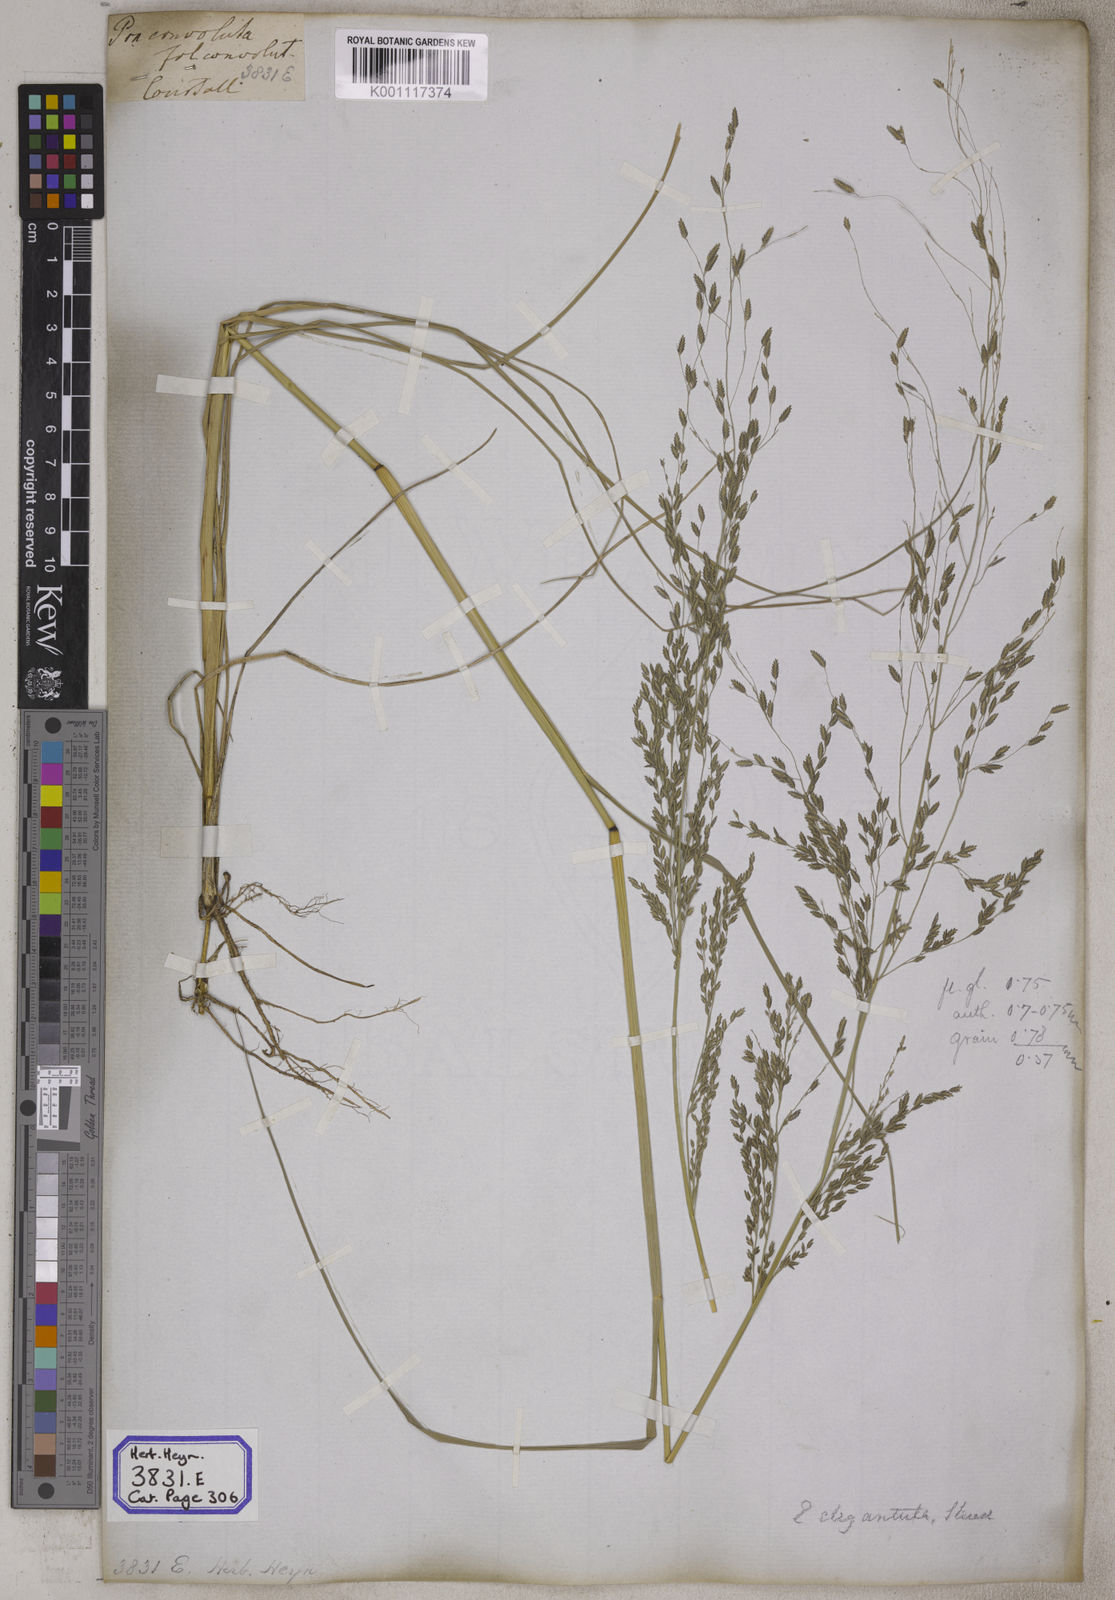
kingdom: Plantae
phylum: Tracheophyta
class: Liliopsida
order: Poales
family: Poaceae
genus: Eragrostis
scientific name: Eragrostis
